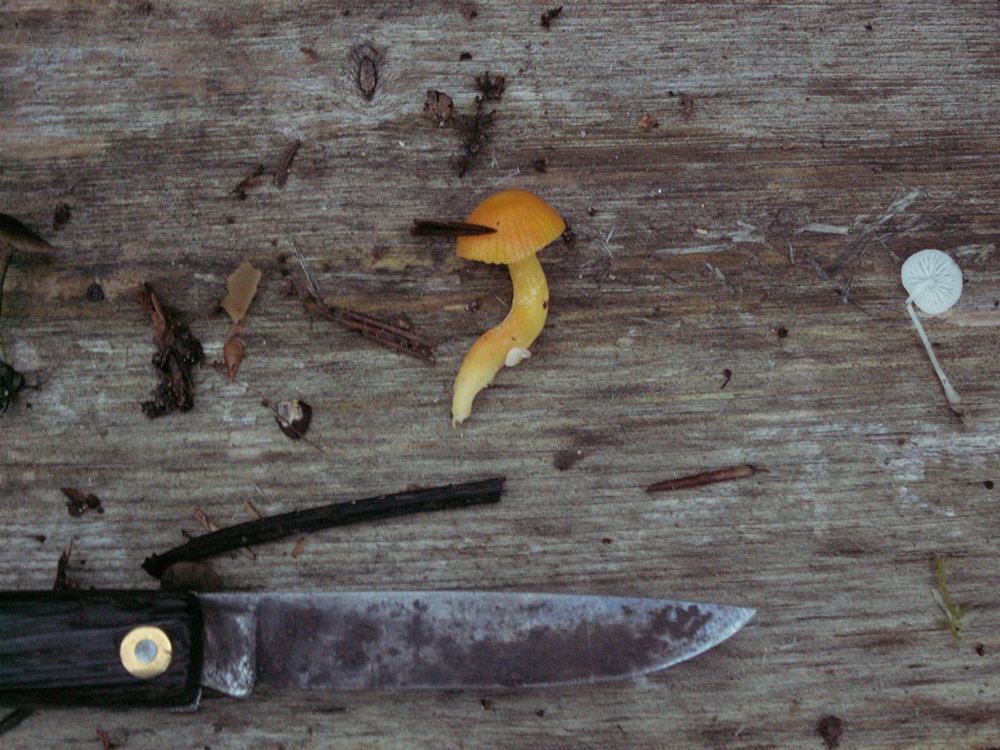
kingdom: Fungi
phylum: Basidiomycota
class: Agaricomycetes
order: Agaricales
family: Hygrophoraceae
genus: Hygrocybe
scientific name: Hygrocybe ceracea
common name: voksgul vokshat
